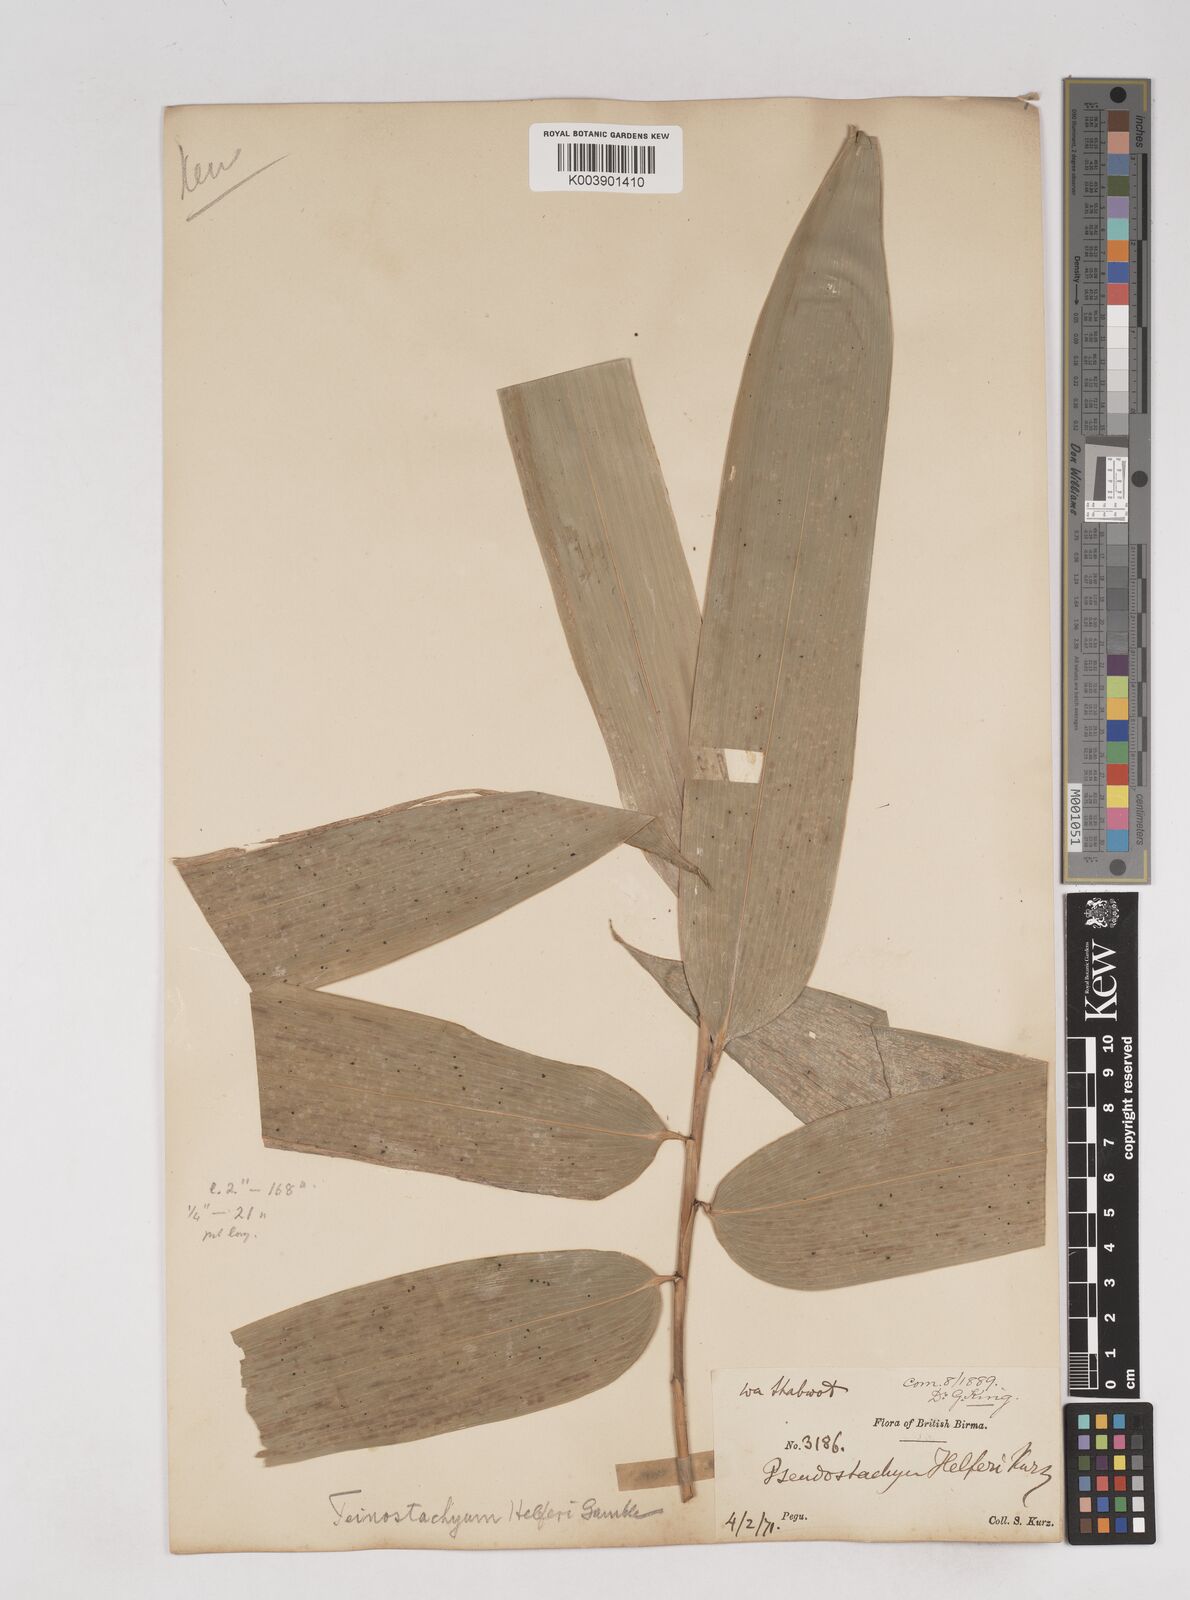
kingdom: Plantae
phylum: Tracheophyta
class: Liliopsida
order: Poales
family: Poaceae
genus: Schizostachyum
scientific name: Schizostachyum helferi
